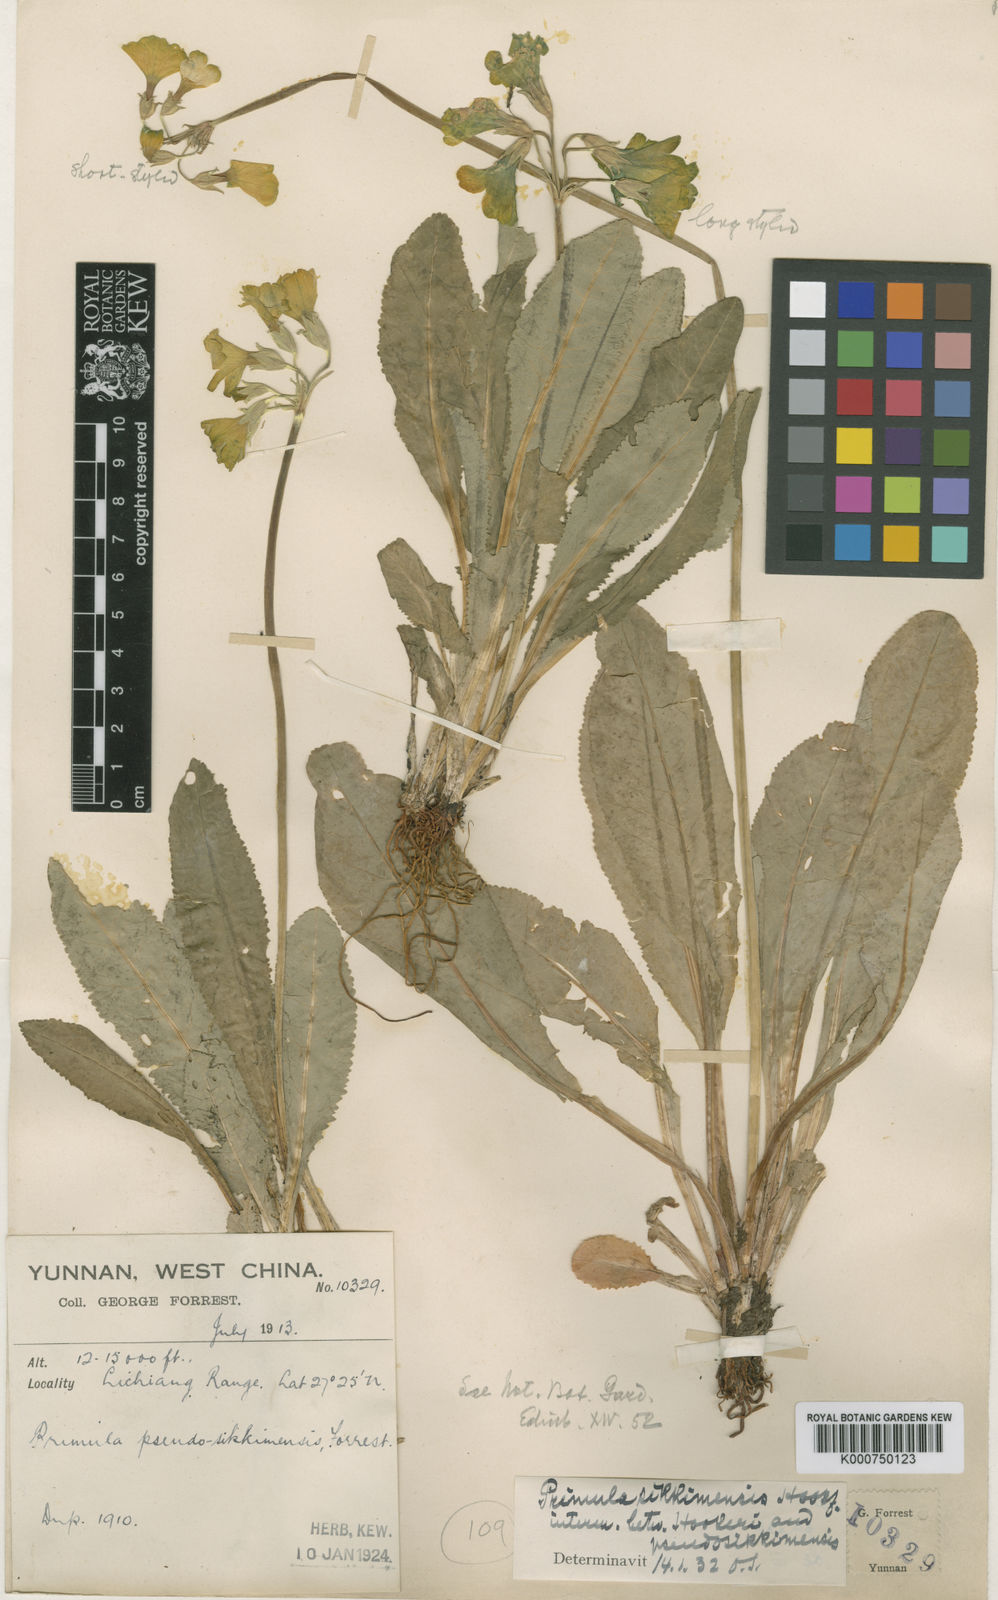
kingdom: Plantae
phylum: Tracheophyta
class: Magnoliopsida
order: Ericales
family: Primulaceae
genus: Primula
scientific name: Primula sikkimensis
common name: Sikkim cowslip
